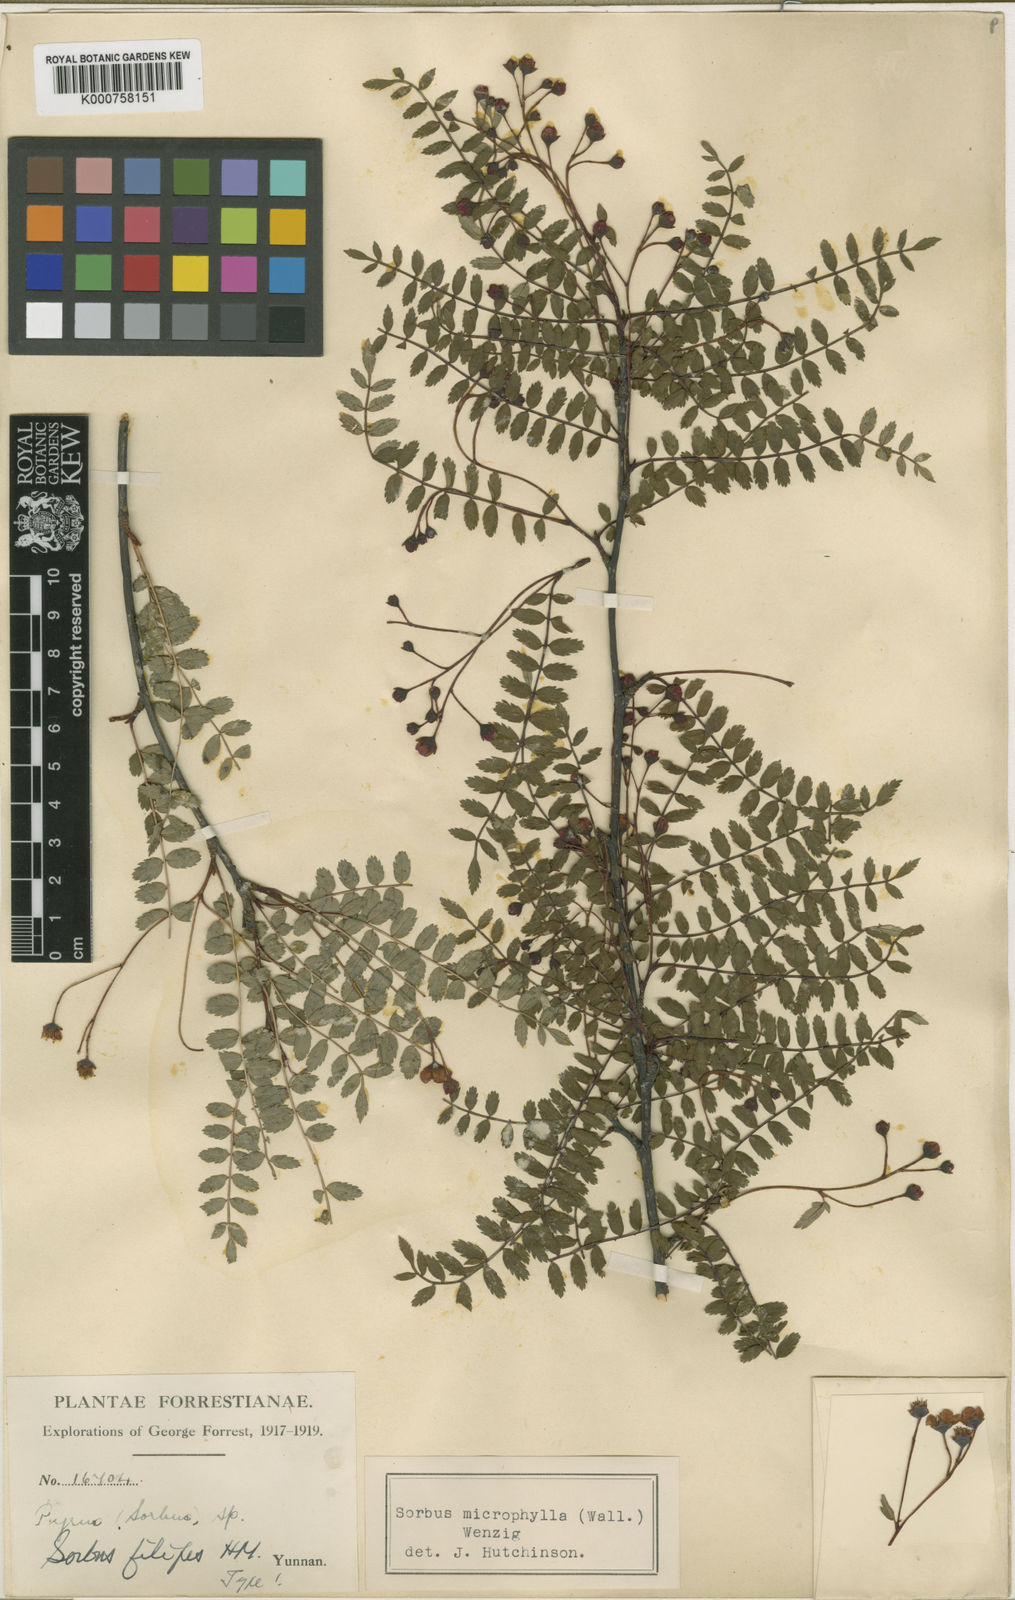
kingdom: Plantae
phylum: Tracheophyta
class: Magnoliopsida
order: Rosales
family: Rosaceae
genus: Sorbus
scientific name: Sorbus filipes
